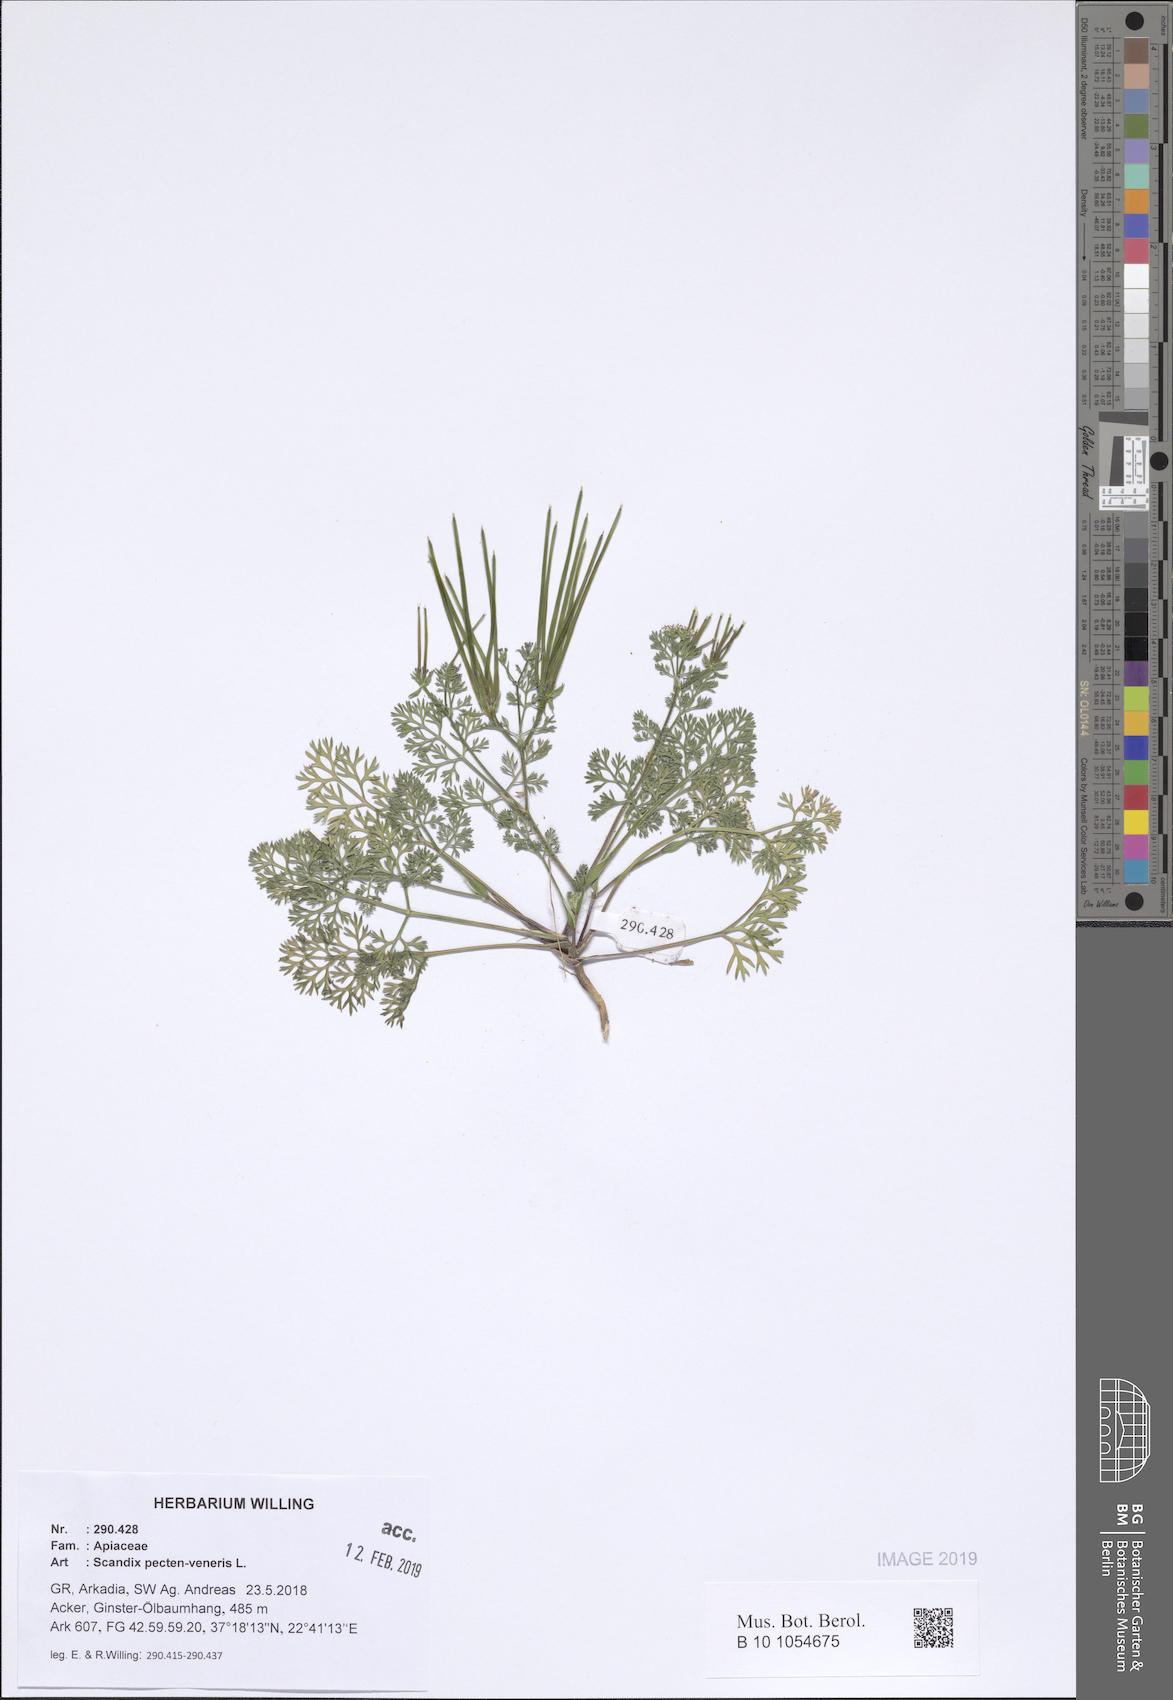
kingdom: Plantae
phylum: Tracheophyta
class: Magnoliopsida
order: Apiales
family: Apiaceae
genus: Scandix
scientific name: Scandix pecten-veneris
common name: Shepherd's-needle
